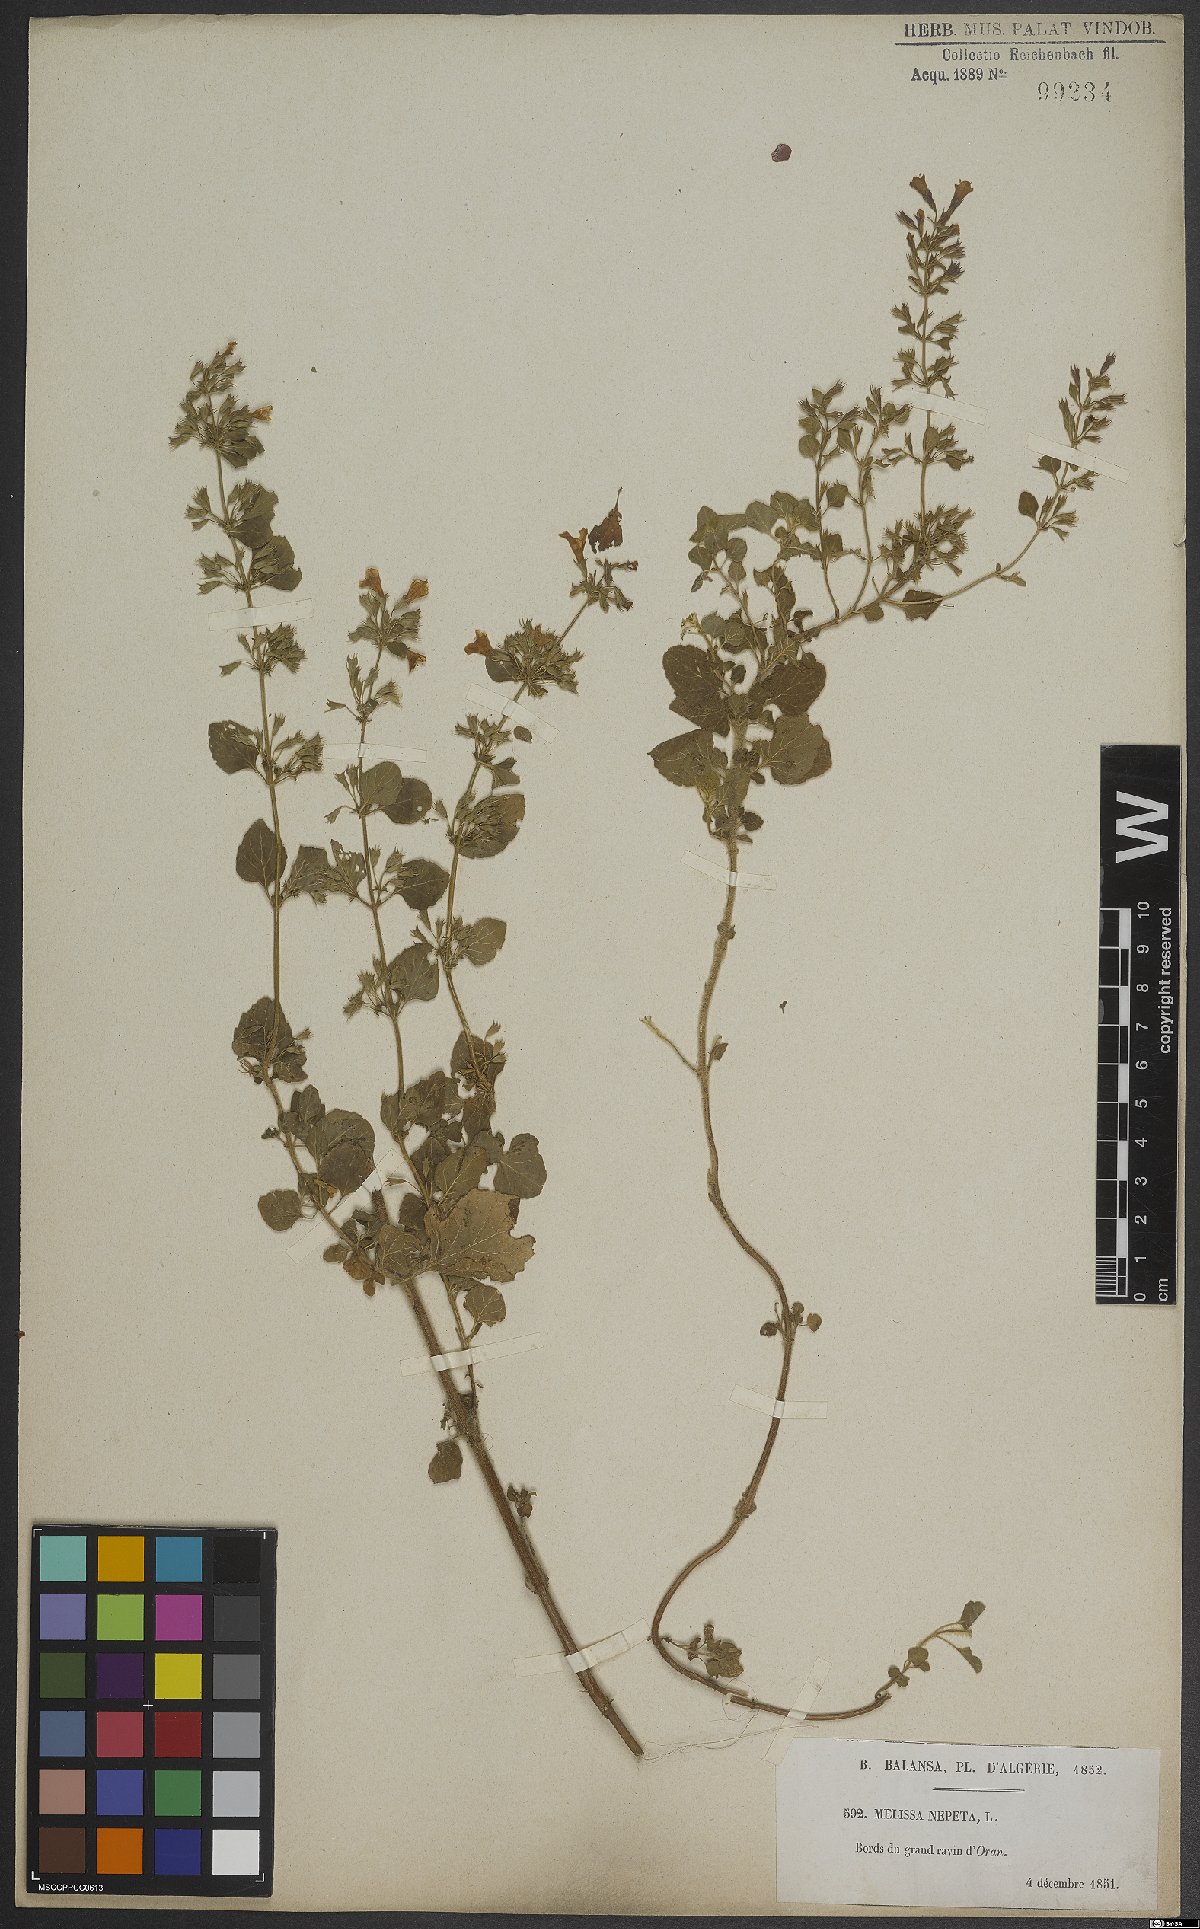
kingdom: Plantae
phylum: Tracheophyta
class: Magnoliopsida
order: Lamiales
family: Lamiaceae
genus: Clinopodium
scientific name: Clinopodium nepeta
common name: Lesser calamint
